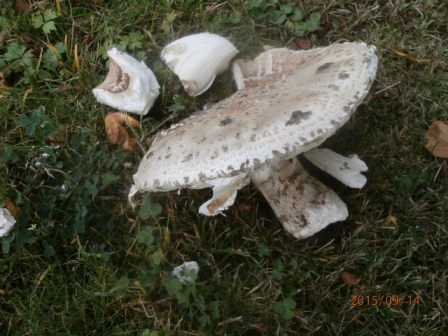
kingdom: Fungi
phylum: Basidiomycota
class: Agaricomycetes
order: Agaricales
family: Amanitaceae
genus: Amanita
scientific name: Amanita
